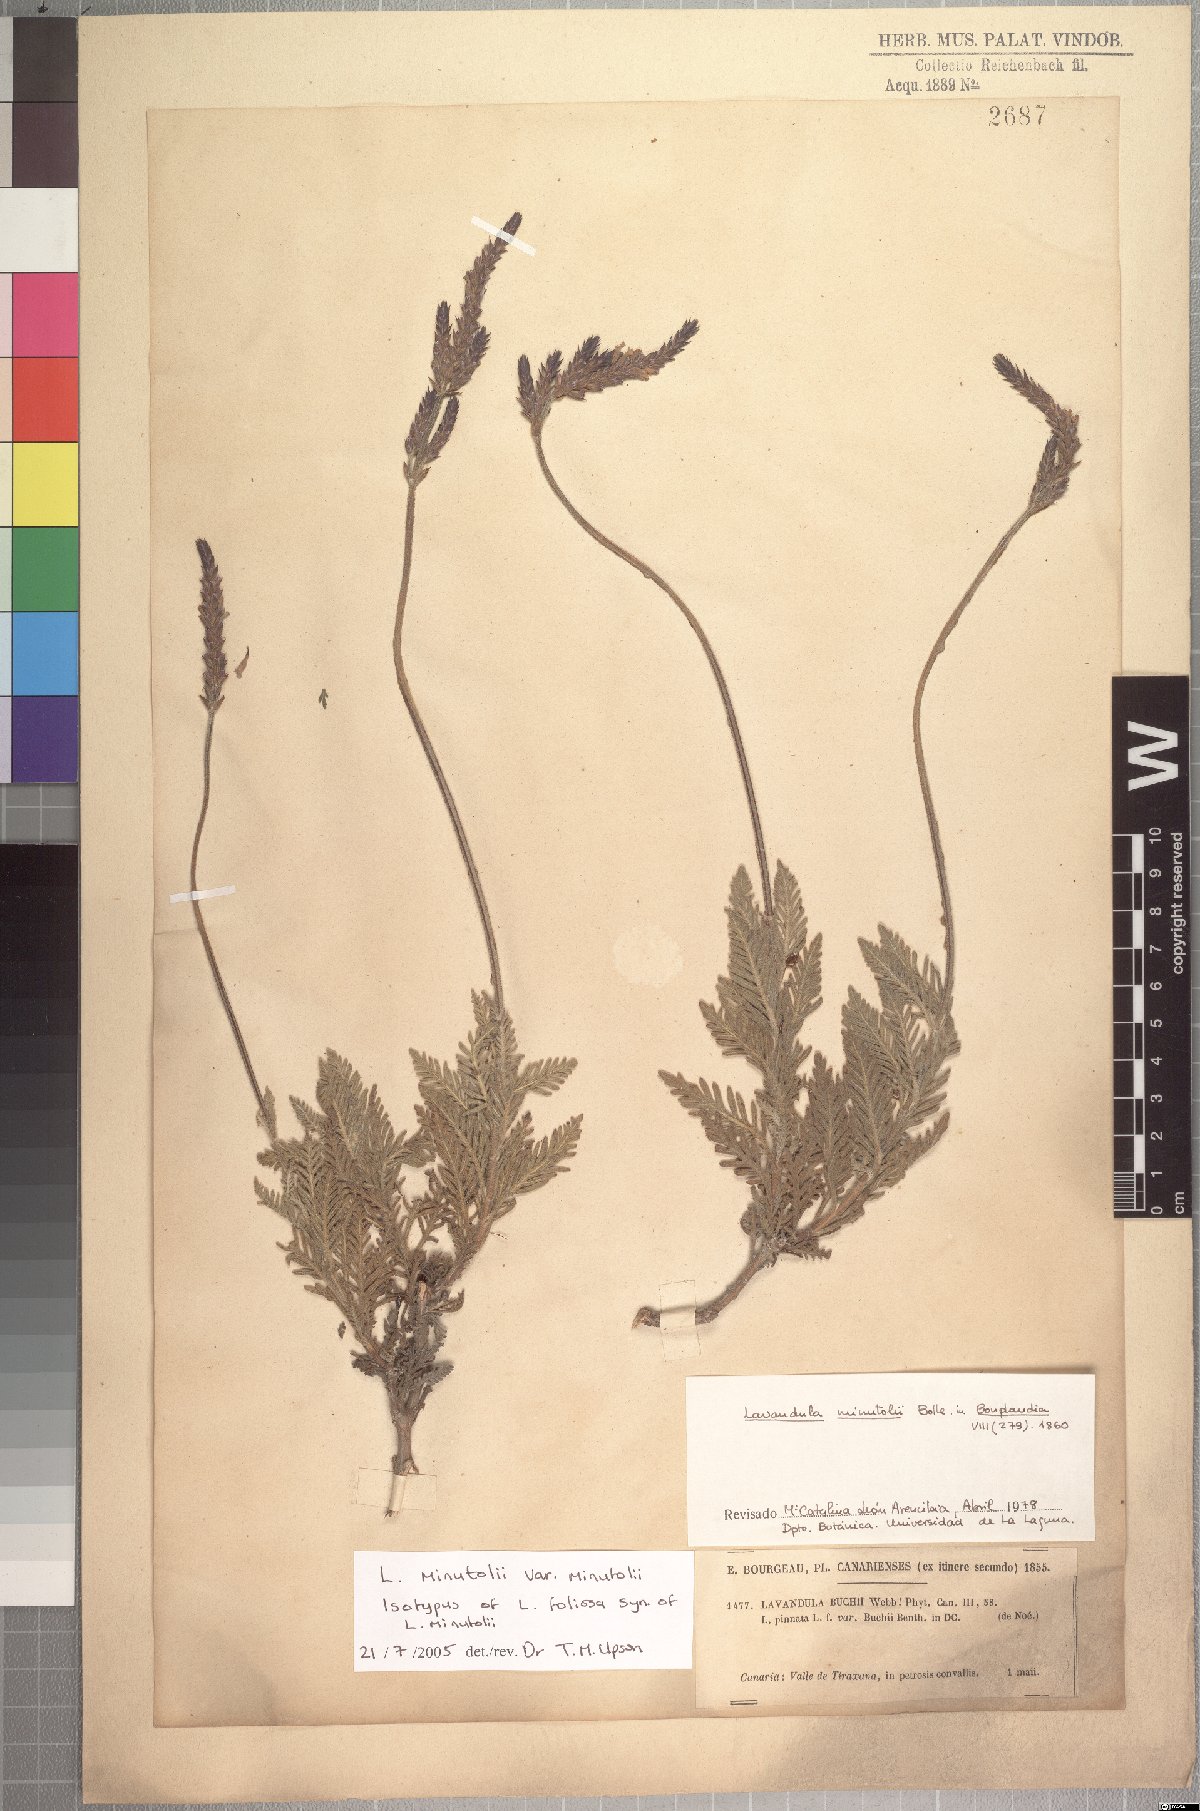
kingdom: Plantae
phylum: Tracheophyta
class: Magnoliopsida
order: Lamiales
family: Lamiaceae
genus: Lavandula
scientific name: Lavandula minutolii
